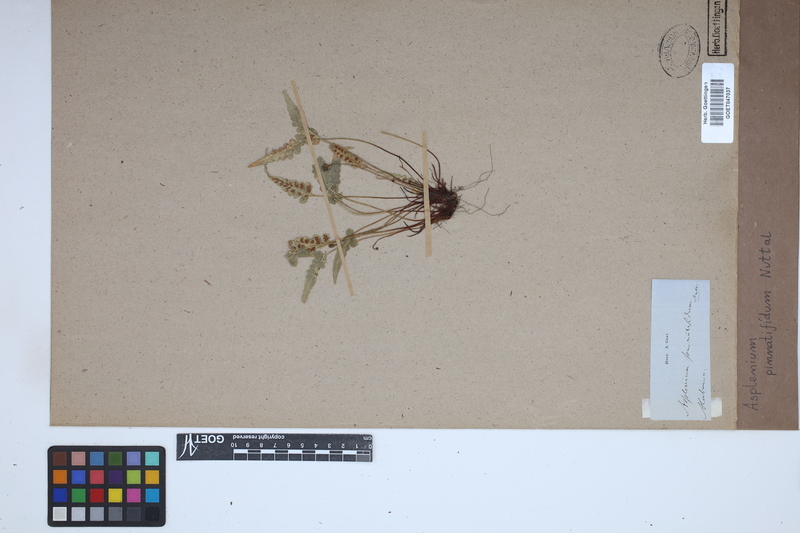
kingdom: Plantae
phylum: Tracheophyta
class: Polypodiopsida
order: Polypodiales
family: Aspleniaceae
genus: Asplenium
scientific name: Asplenium pinnatifidum
